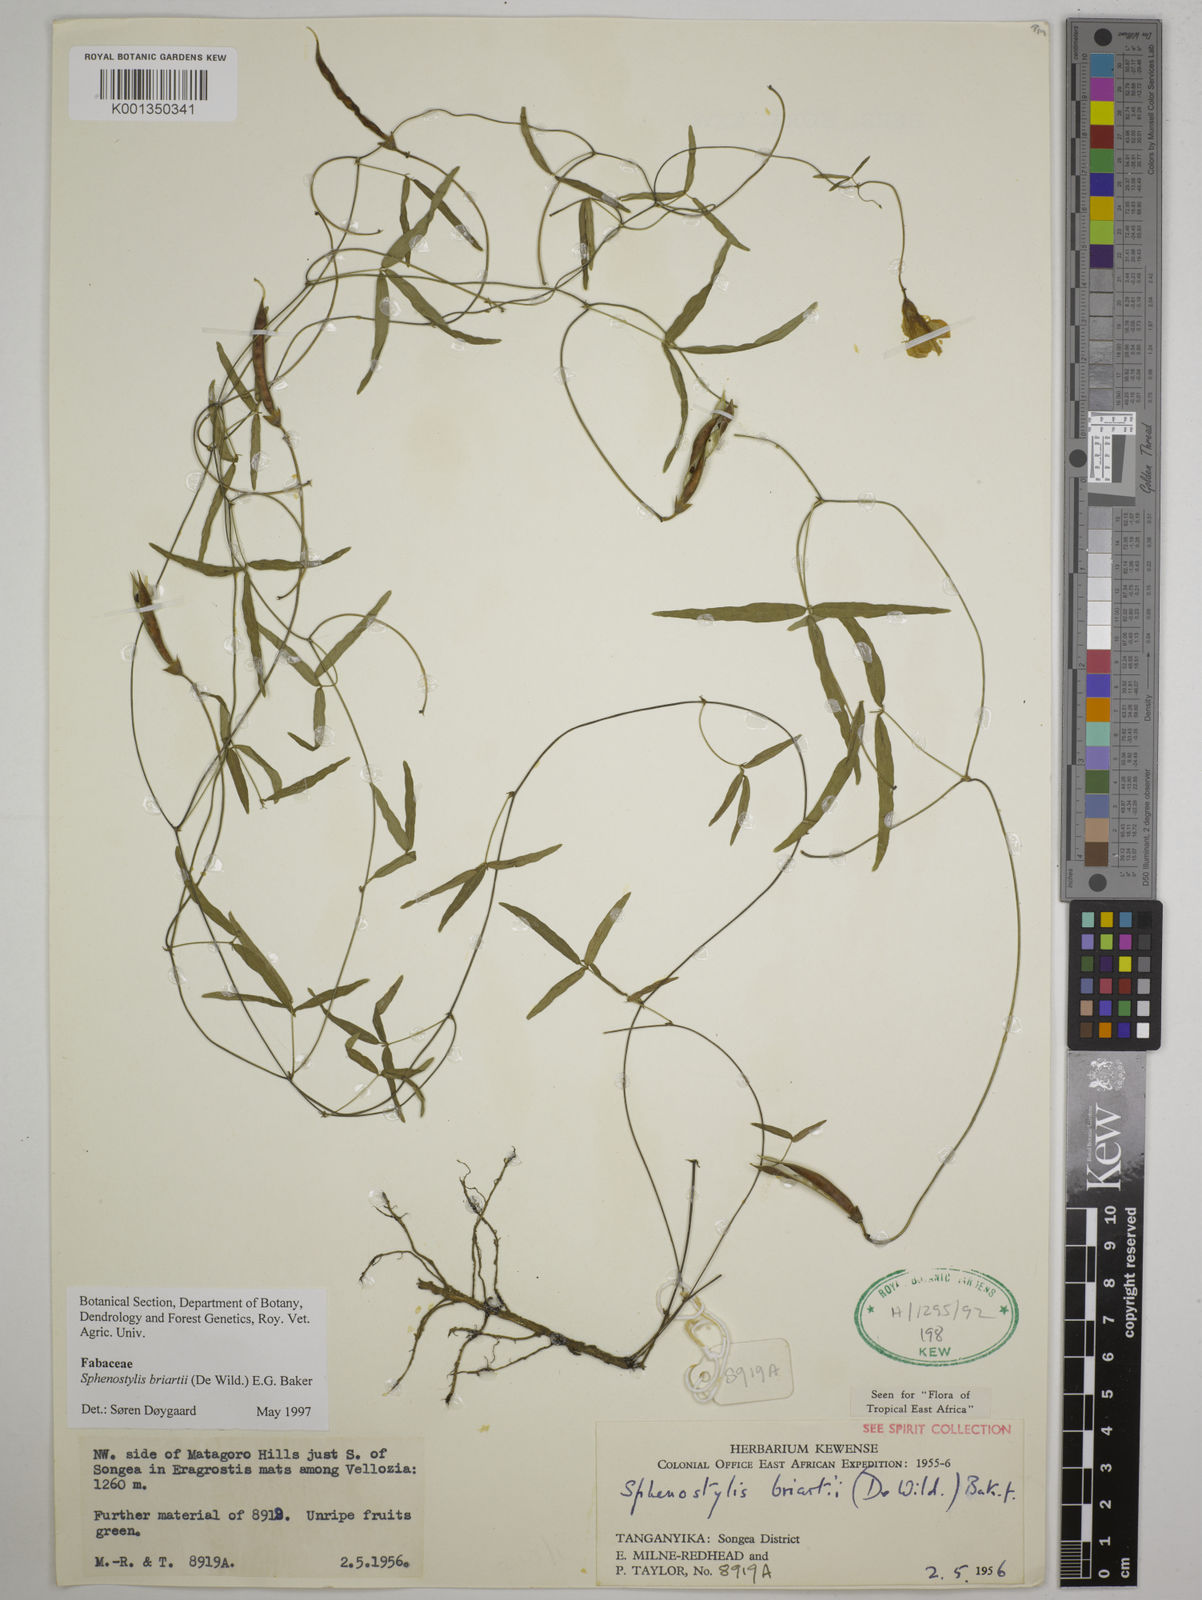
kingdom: Plantae
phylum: Tracheophyta
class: Magnoliopsida
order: Fabales
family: Fabaceae
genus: Sphenostylis
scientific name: Sphenostylis briartii
